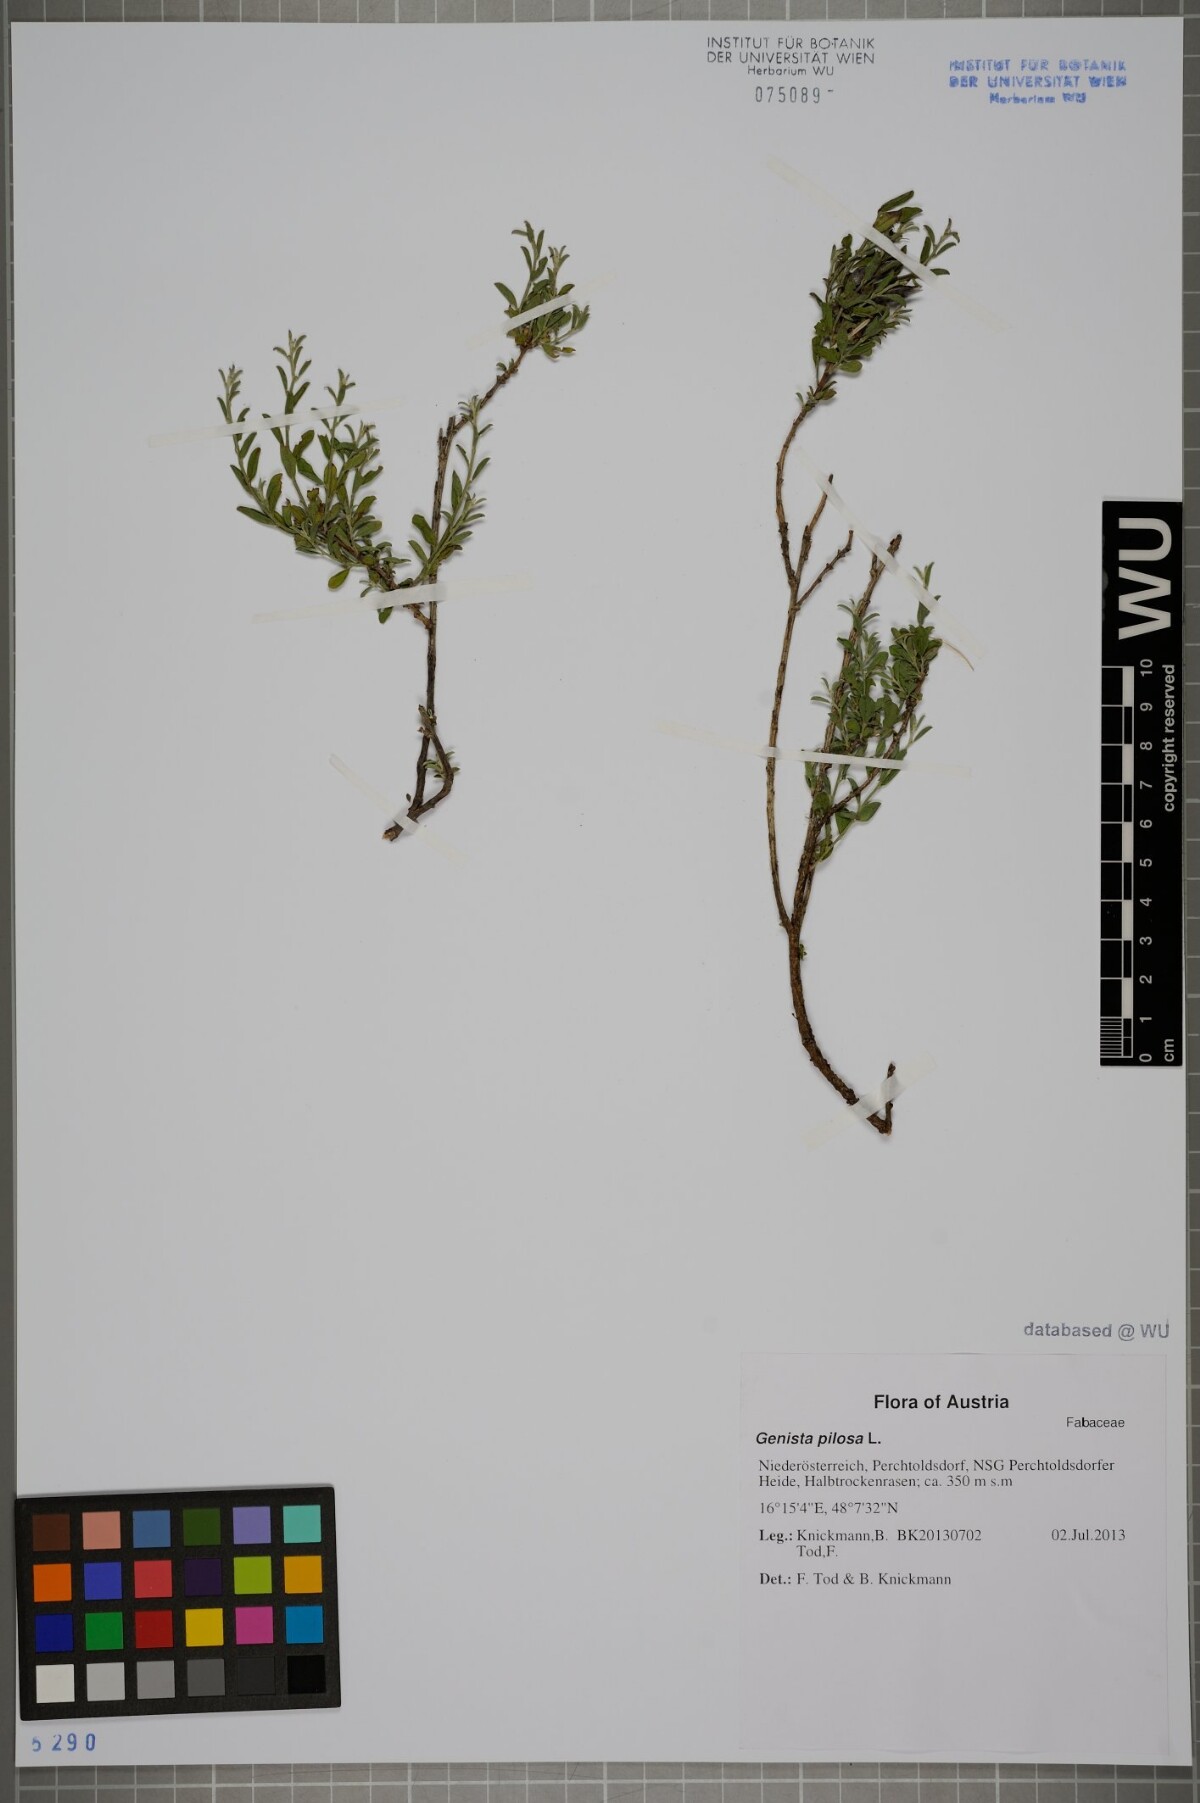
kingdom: Plantae
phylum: Tracheophyta
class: Magnoliopsida
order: Fabales
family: Fabaceae
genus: Genista
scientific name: Genista pilosa
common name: Hairy greenweed
